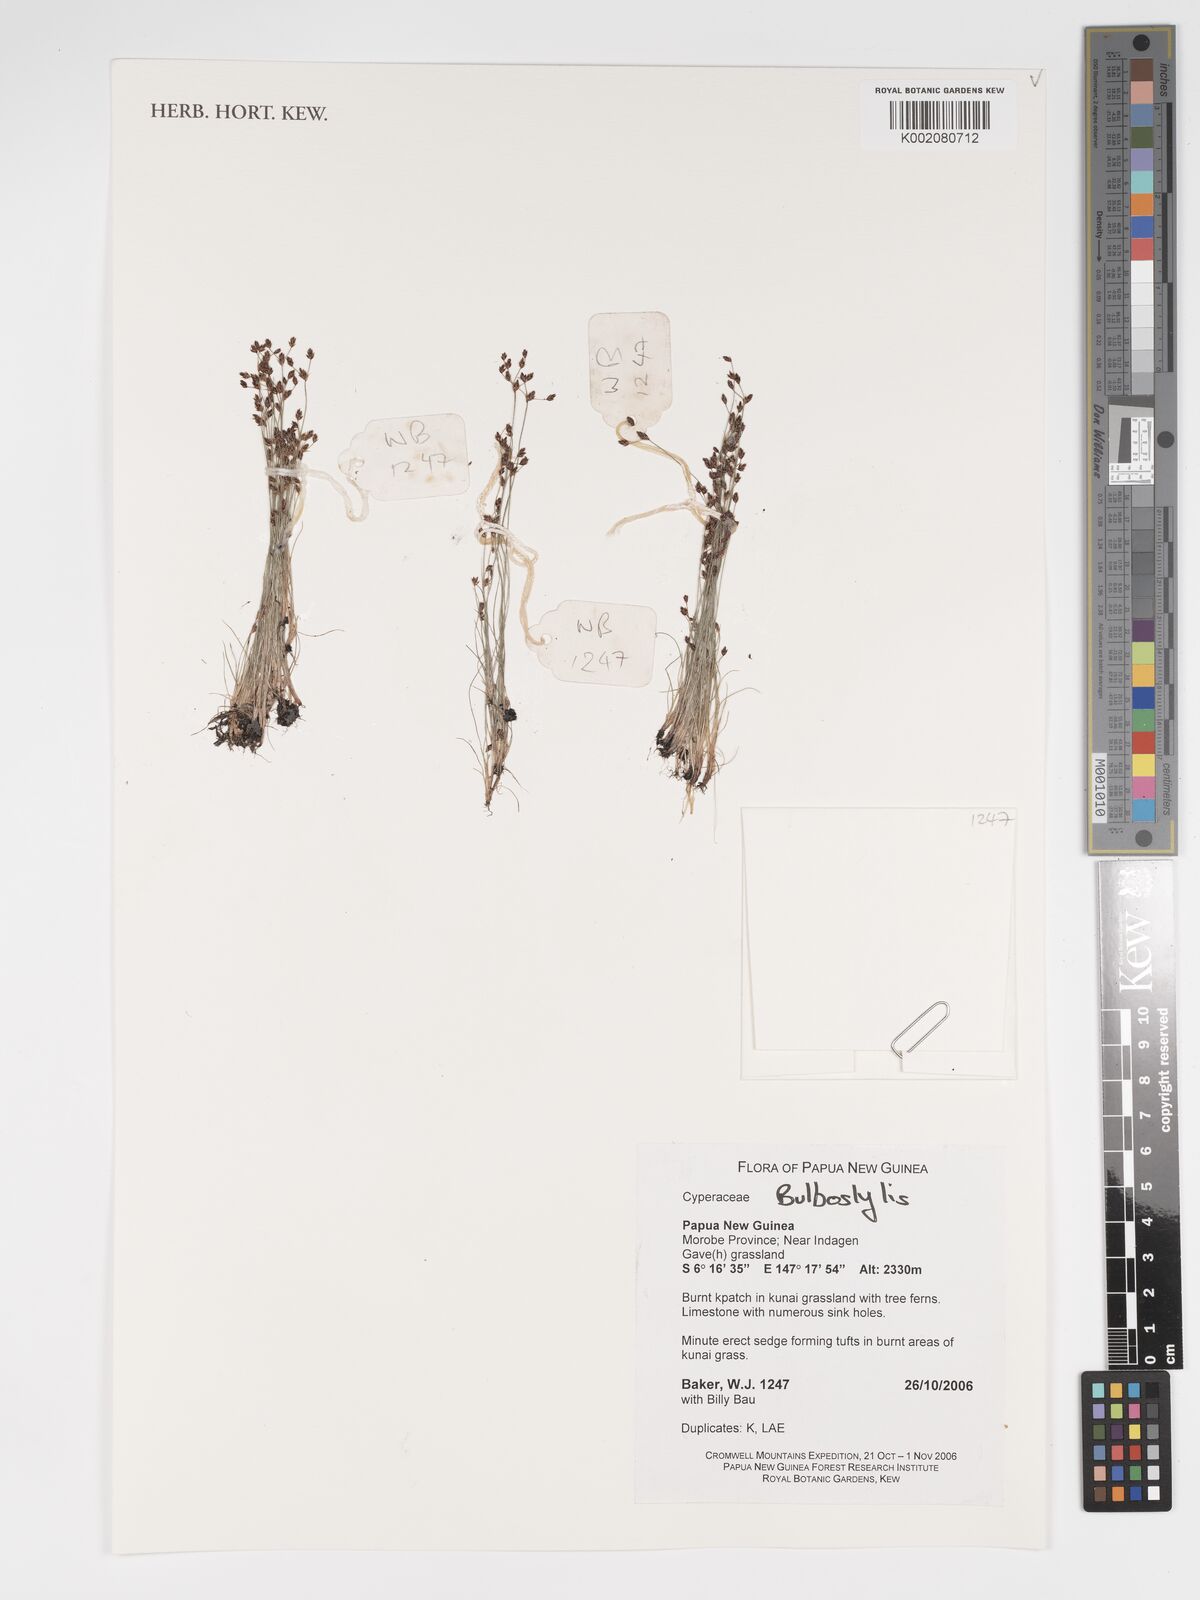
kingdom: Plantae
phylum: Tracheophyta
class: Magnoliopsida
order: Asterales
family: Asteraceae
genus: Bulbostylis
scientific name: Bulbostylis
